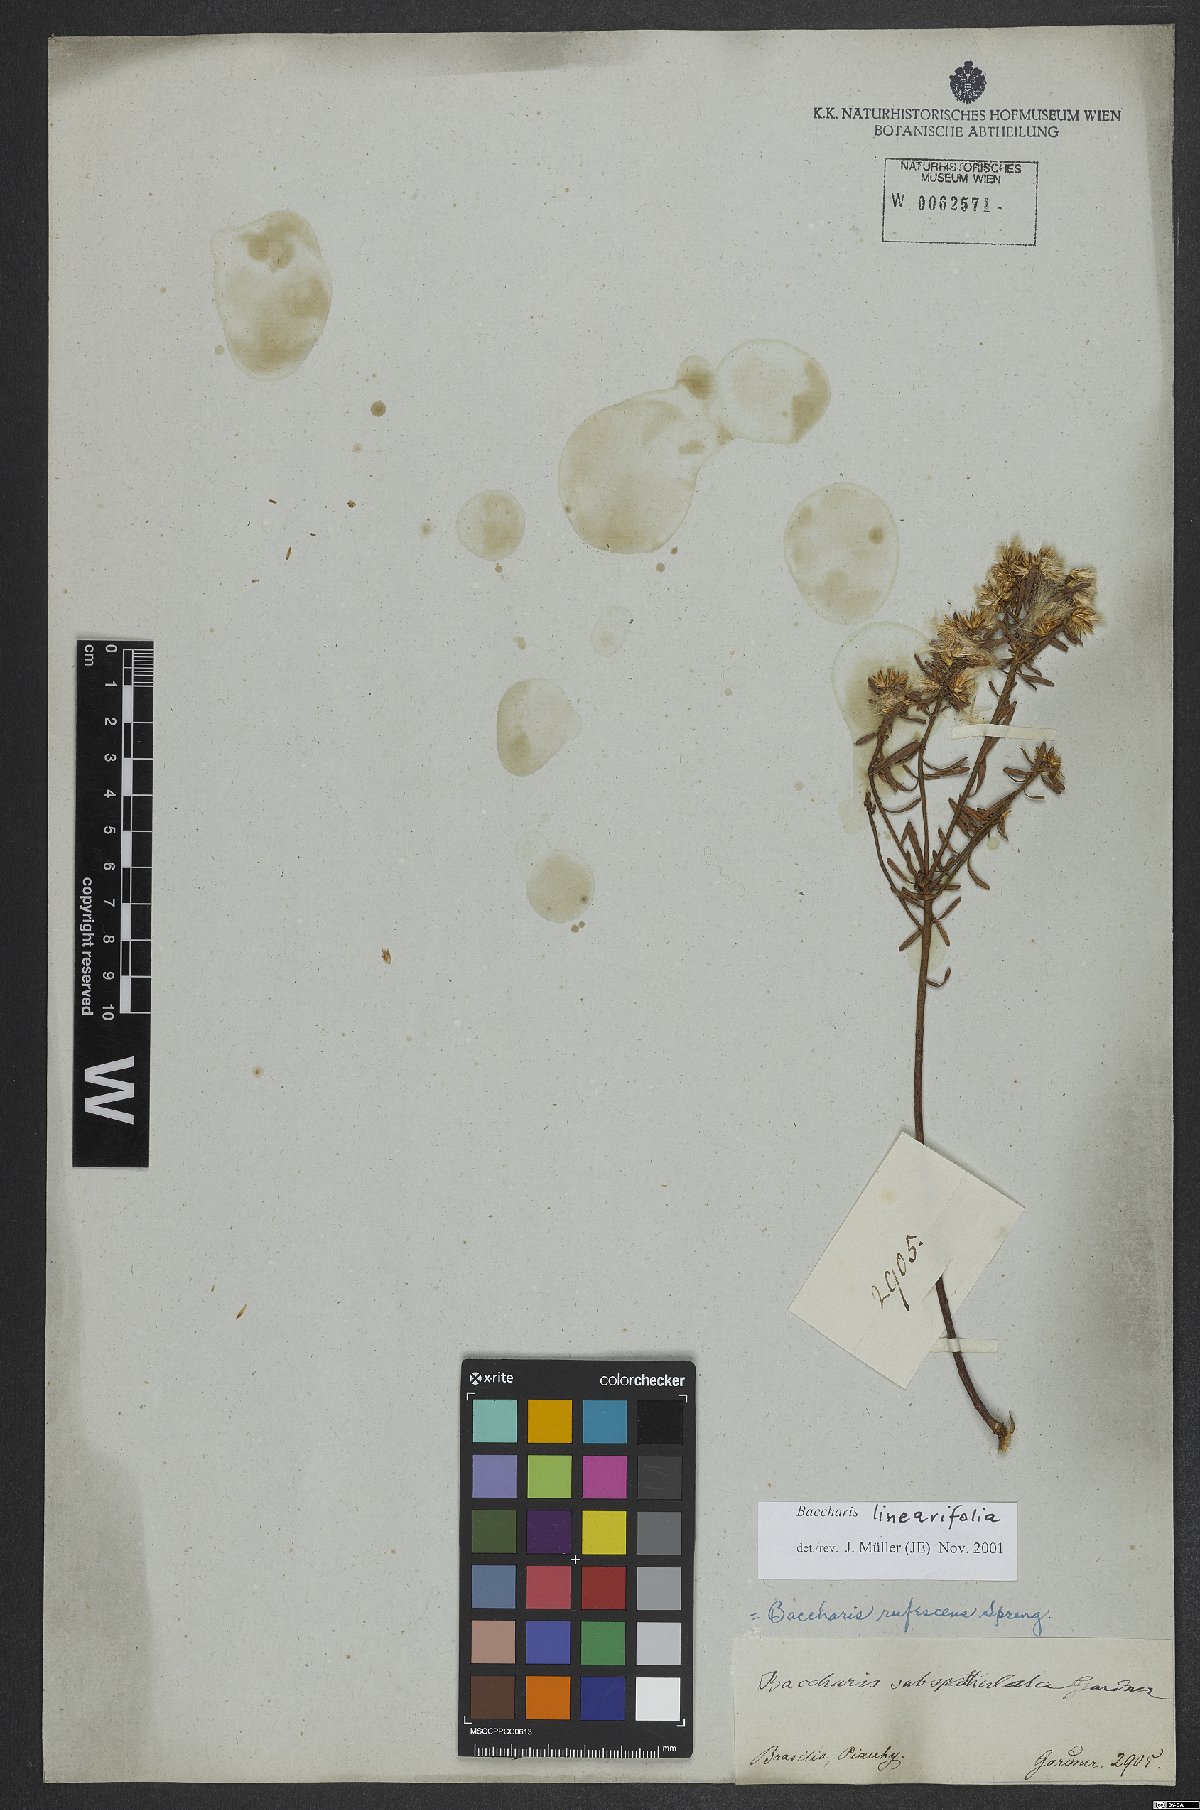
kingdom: Plantae
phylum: Tracheophyta
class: Magnoliopsida
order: Asterales
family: Asteraceae
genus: Baccharis
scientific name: Baccharis linearifolia
